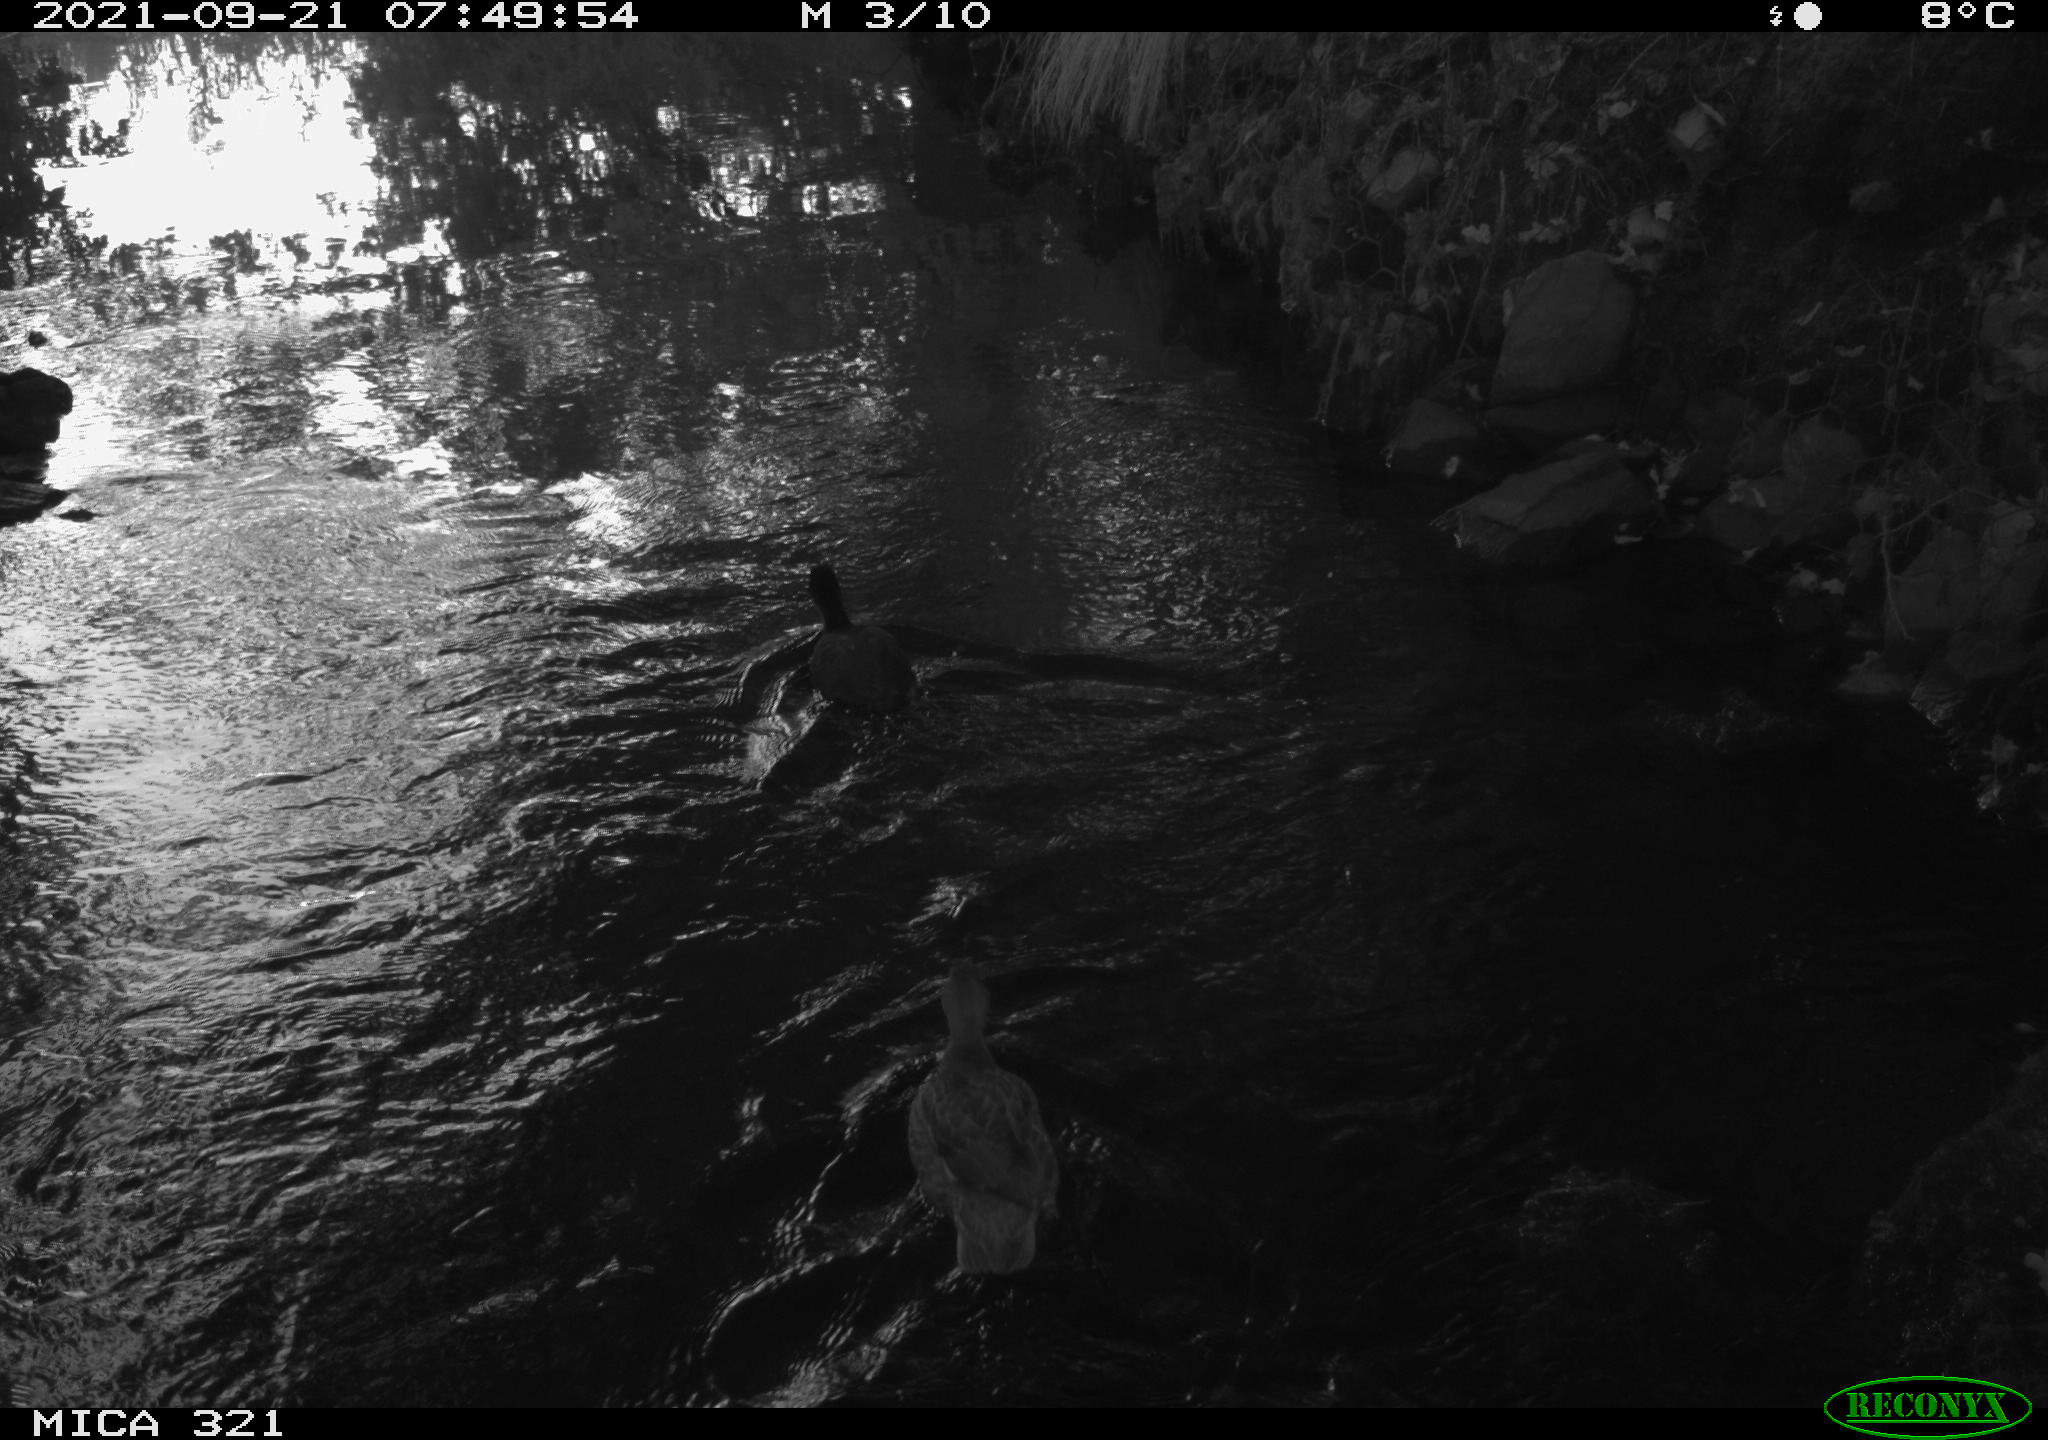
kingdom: Animalia
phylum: Chordata
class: Aves
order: Anseriformes
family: Anatidae
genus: Anas
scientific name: Anas platyrhynchos
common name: Mallard
